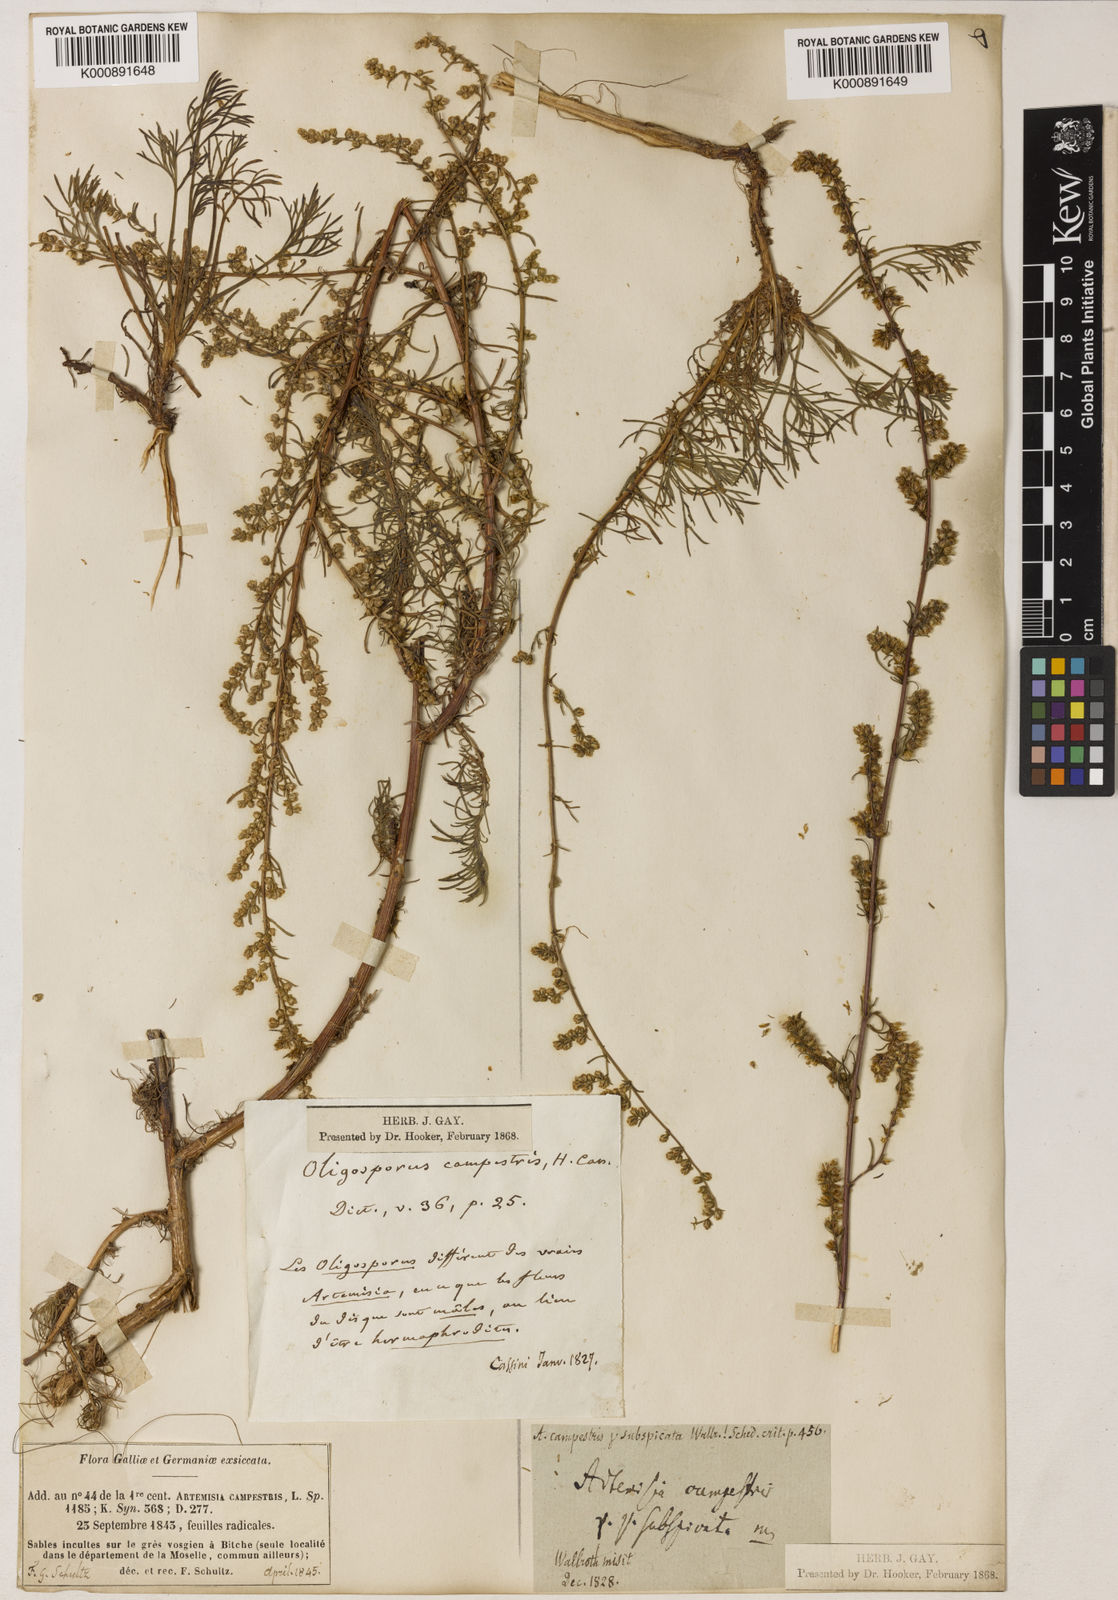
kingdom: Plantae
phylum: Tracheophyta
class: Magnoliopsida
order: Asterales
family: Asteraceae
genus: Artemisia
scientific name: Artemisia
